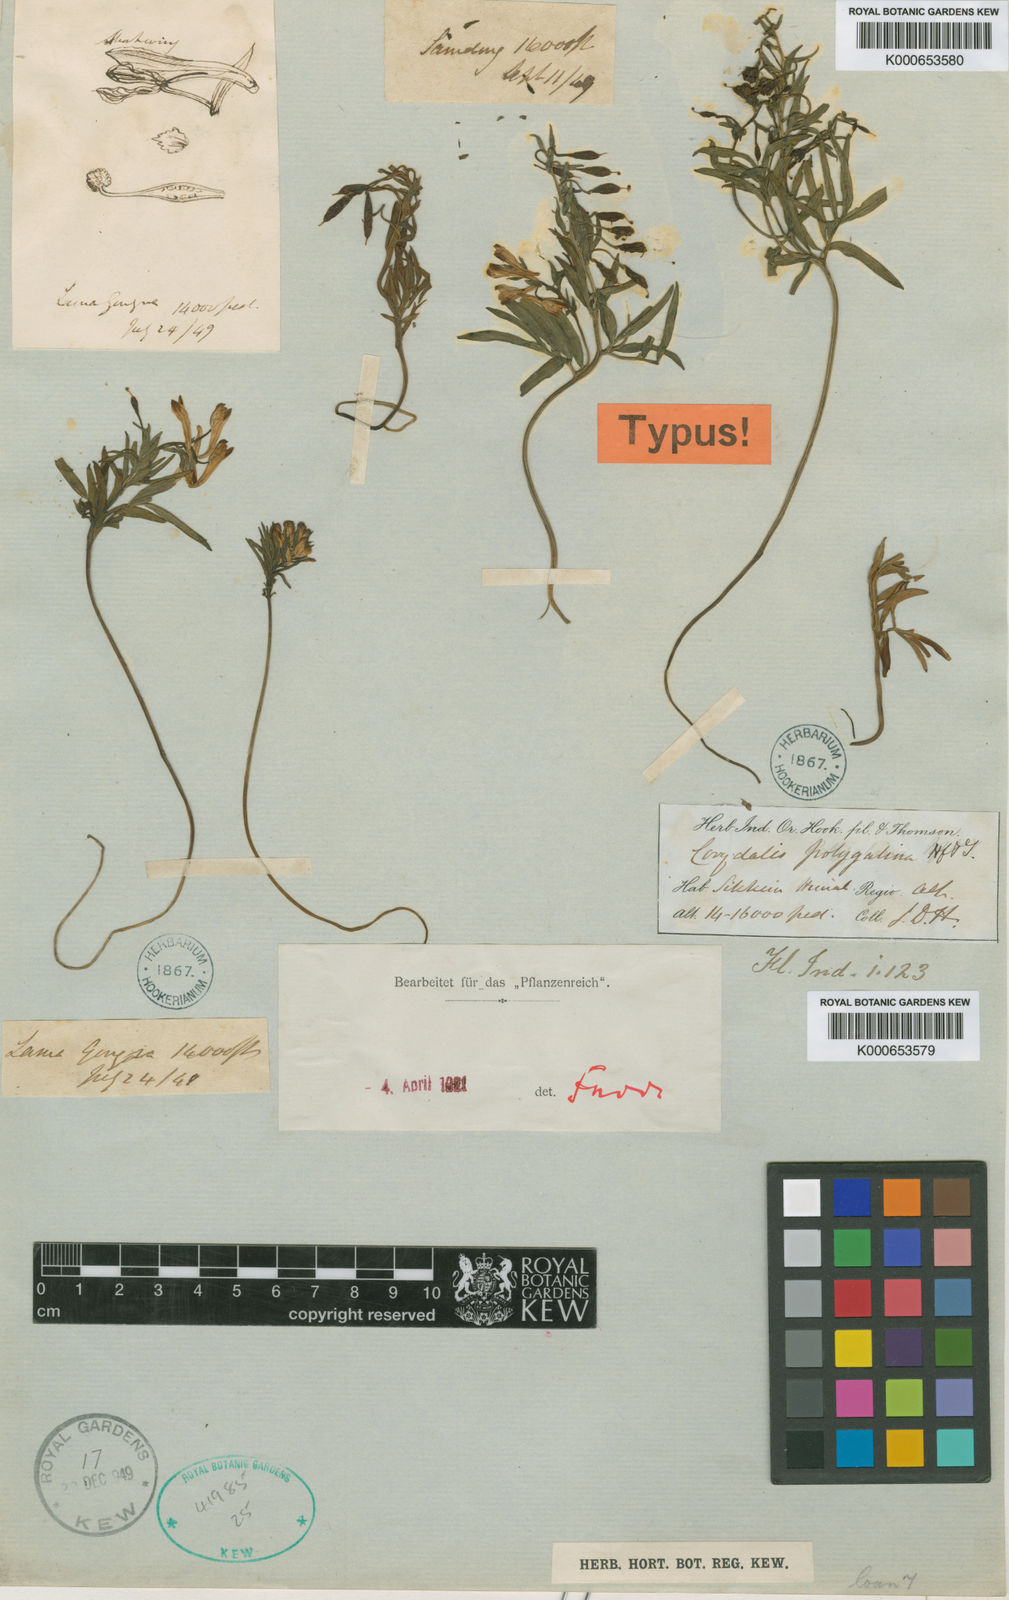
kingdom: Plantae
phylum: Tracheophyta
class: Magnoliopsida
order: Ranunculales
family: Papaveraceae
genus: Corydalis
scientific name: Corydalis polygalina
